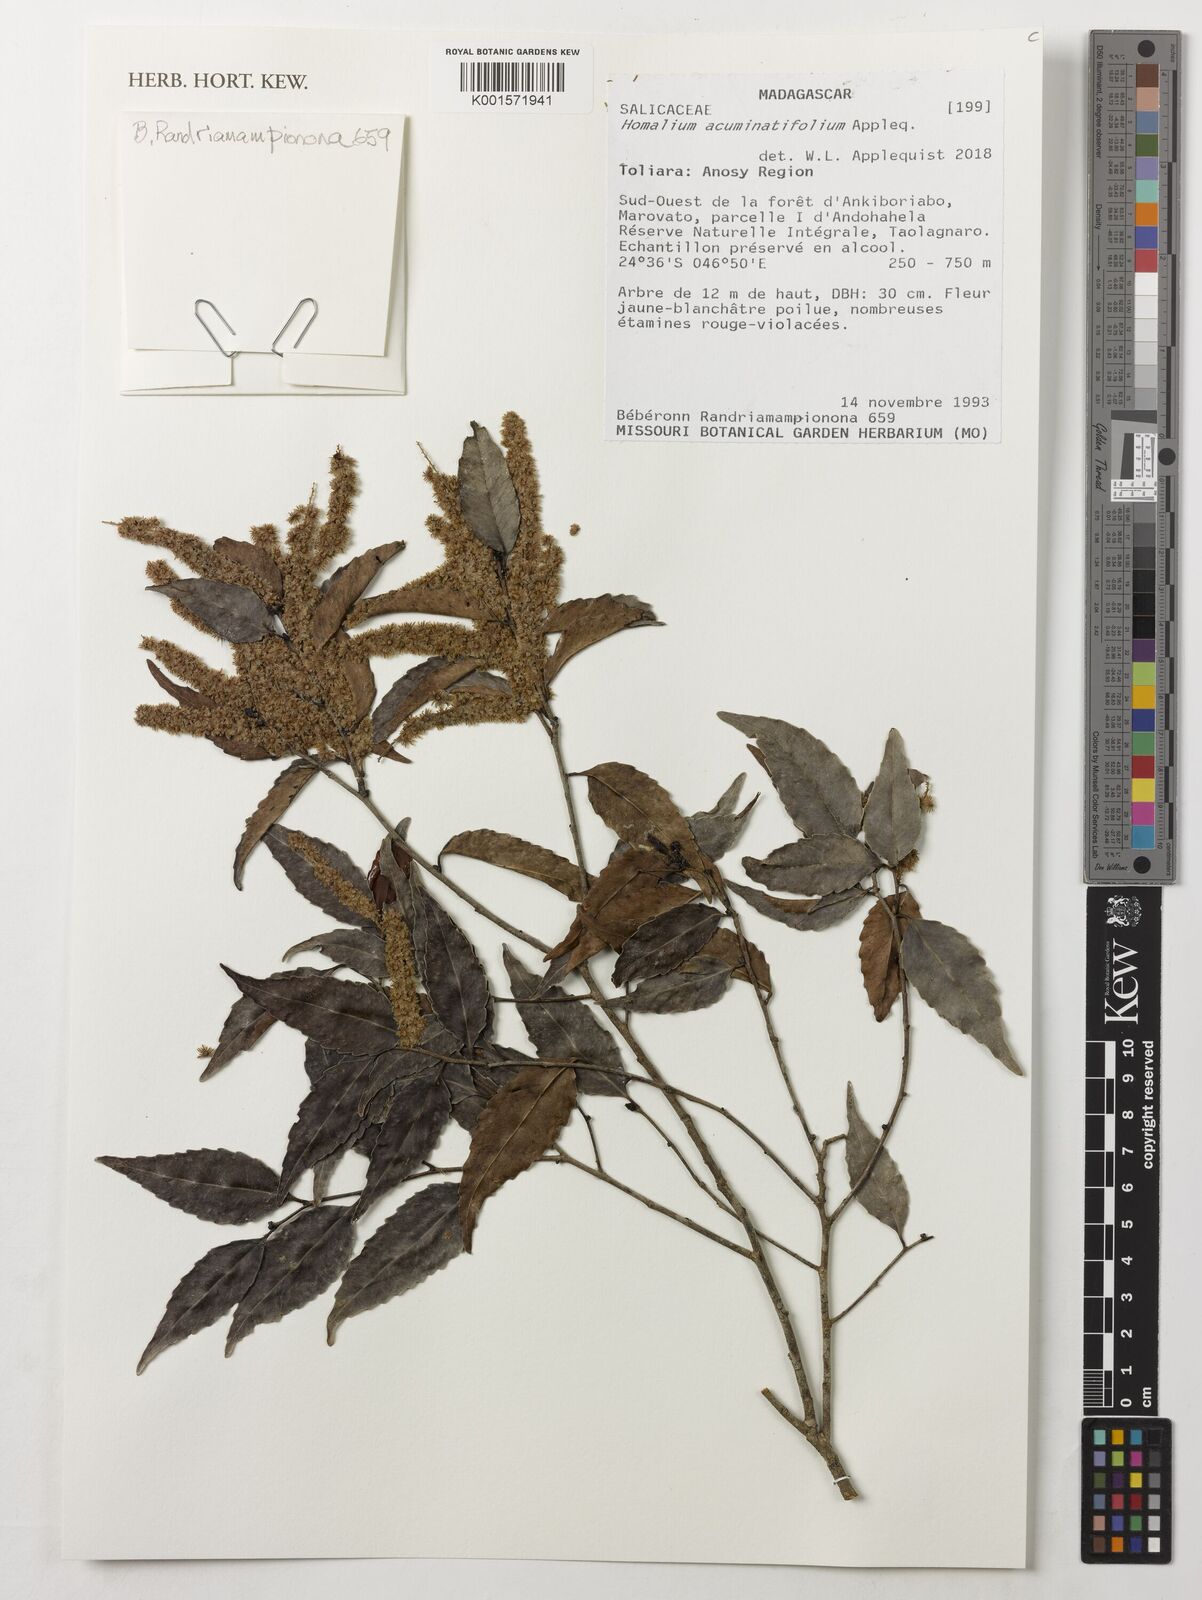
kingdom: Plantae
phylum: Tracheophyta
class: Magnoliopsida
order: Malpighiales
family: Salicaceae
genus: Homalium
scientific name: Homalium acuminatifolium
